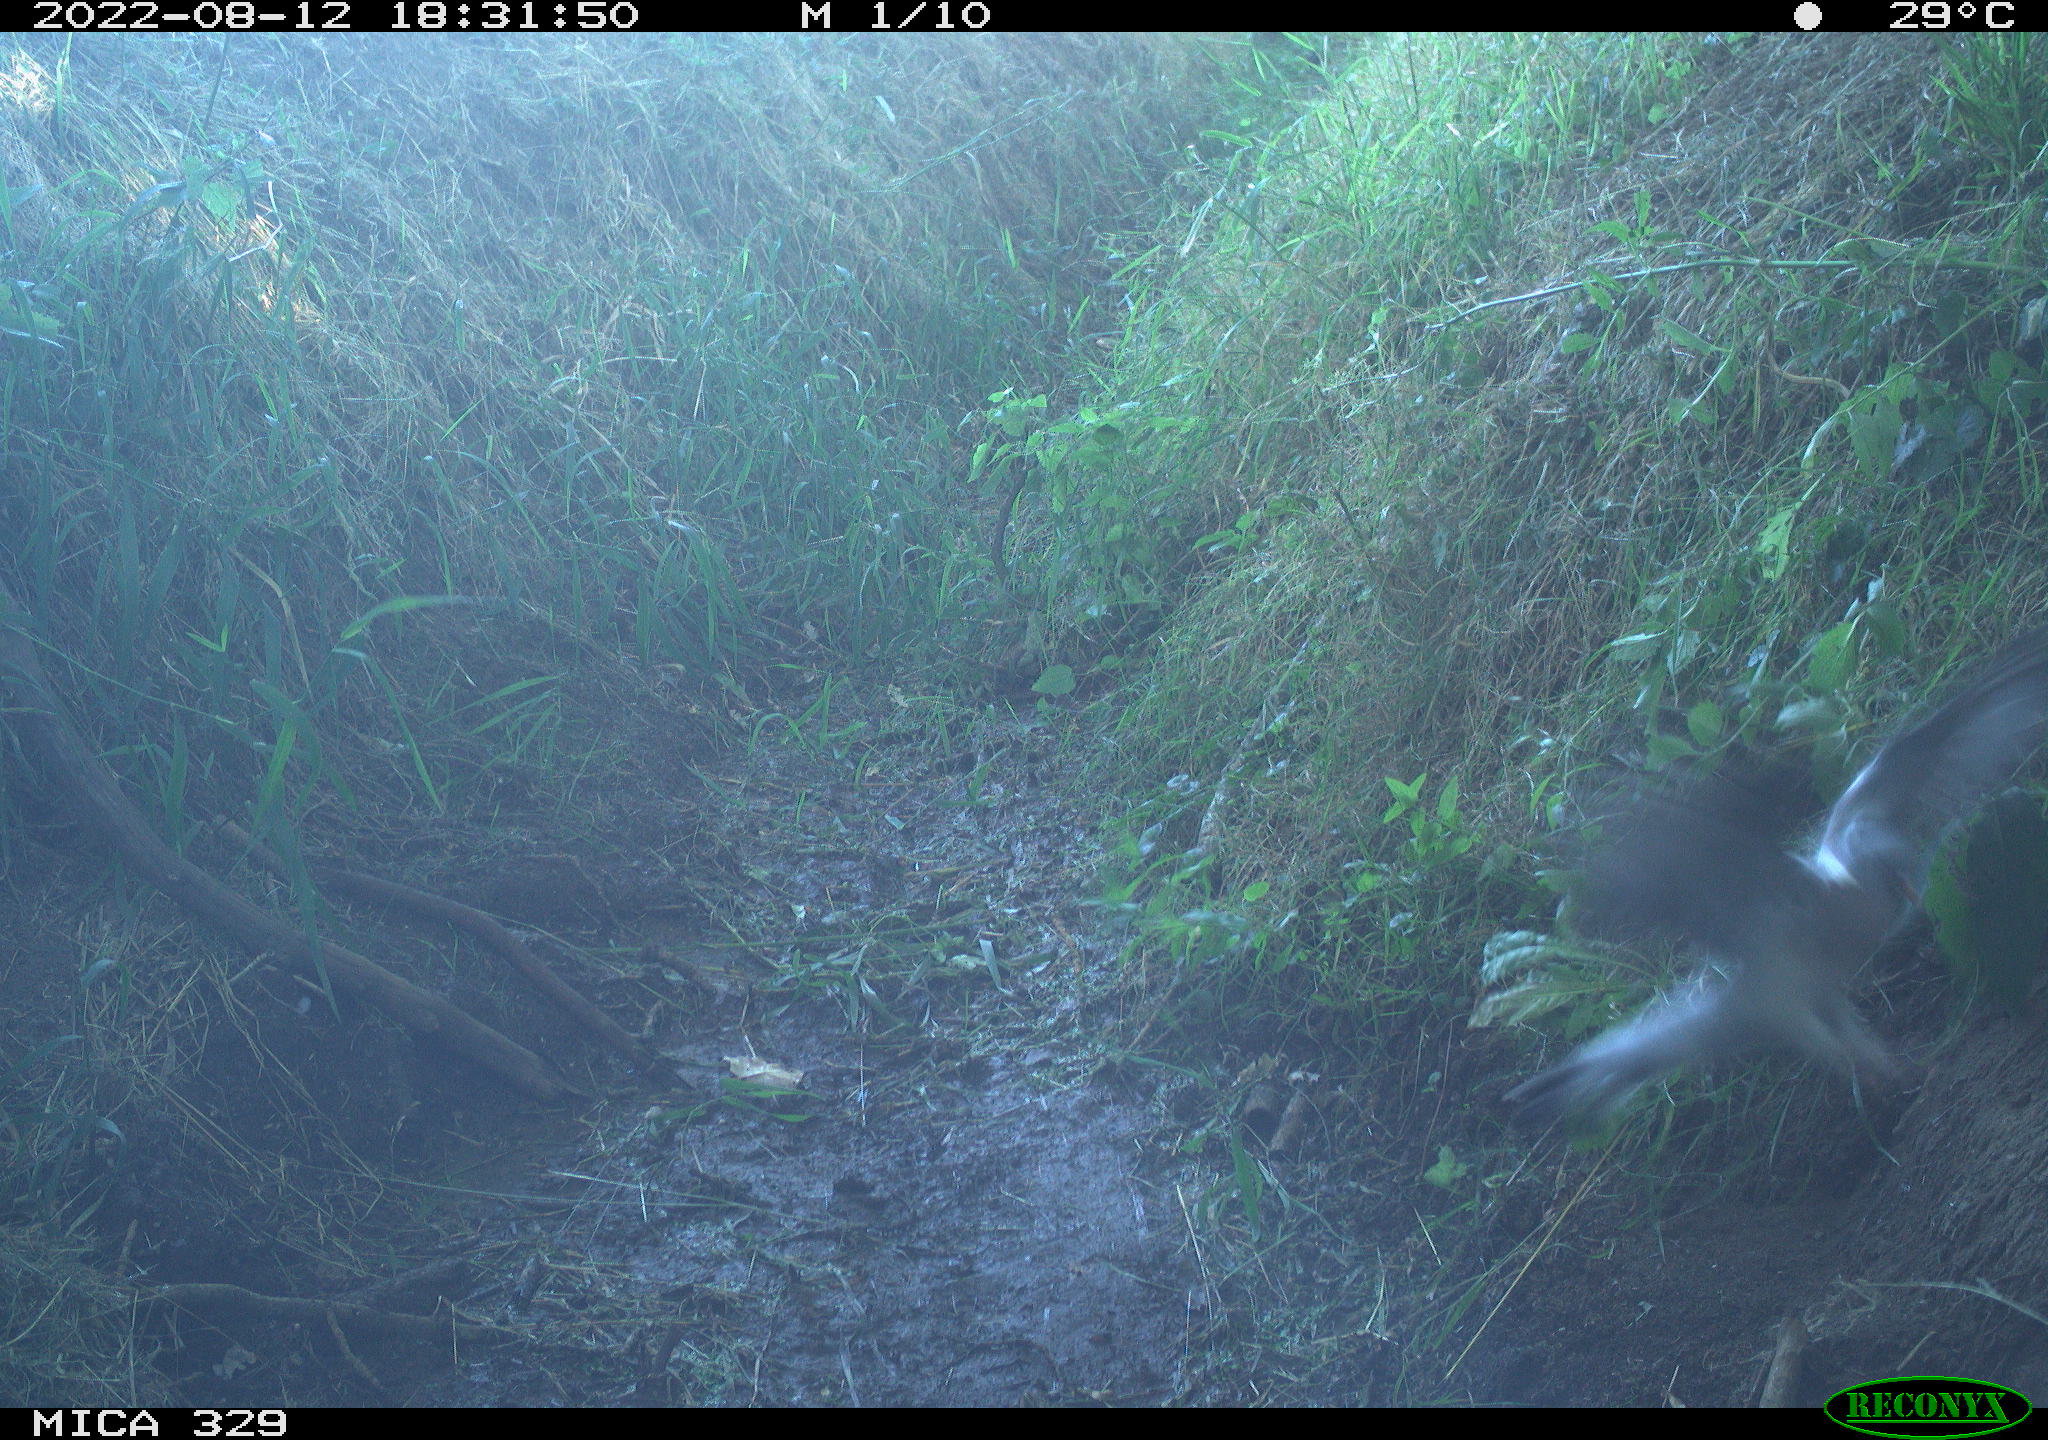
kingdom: Animalia
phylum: Chordata
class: Aves
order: Columbiformes
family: Columbidae
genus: Columba
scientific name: Columba palumbus
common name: Common wood pigeon
